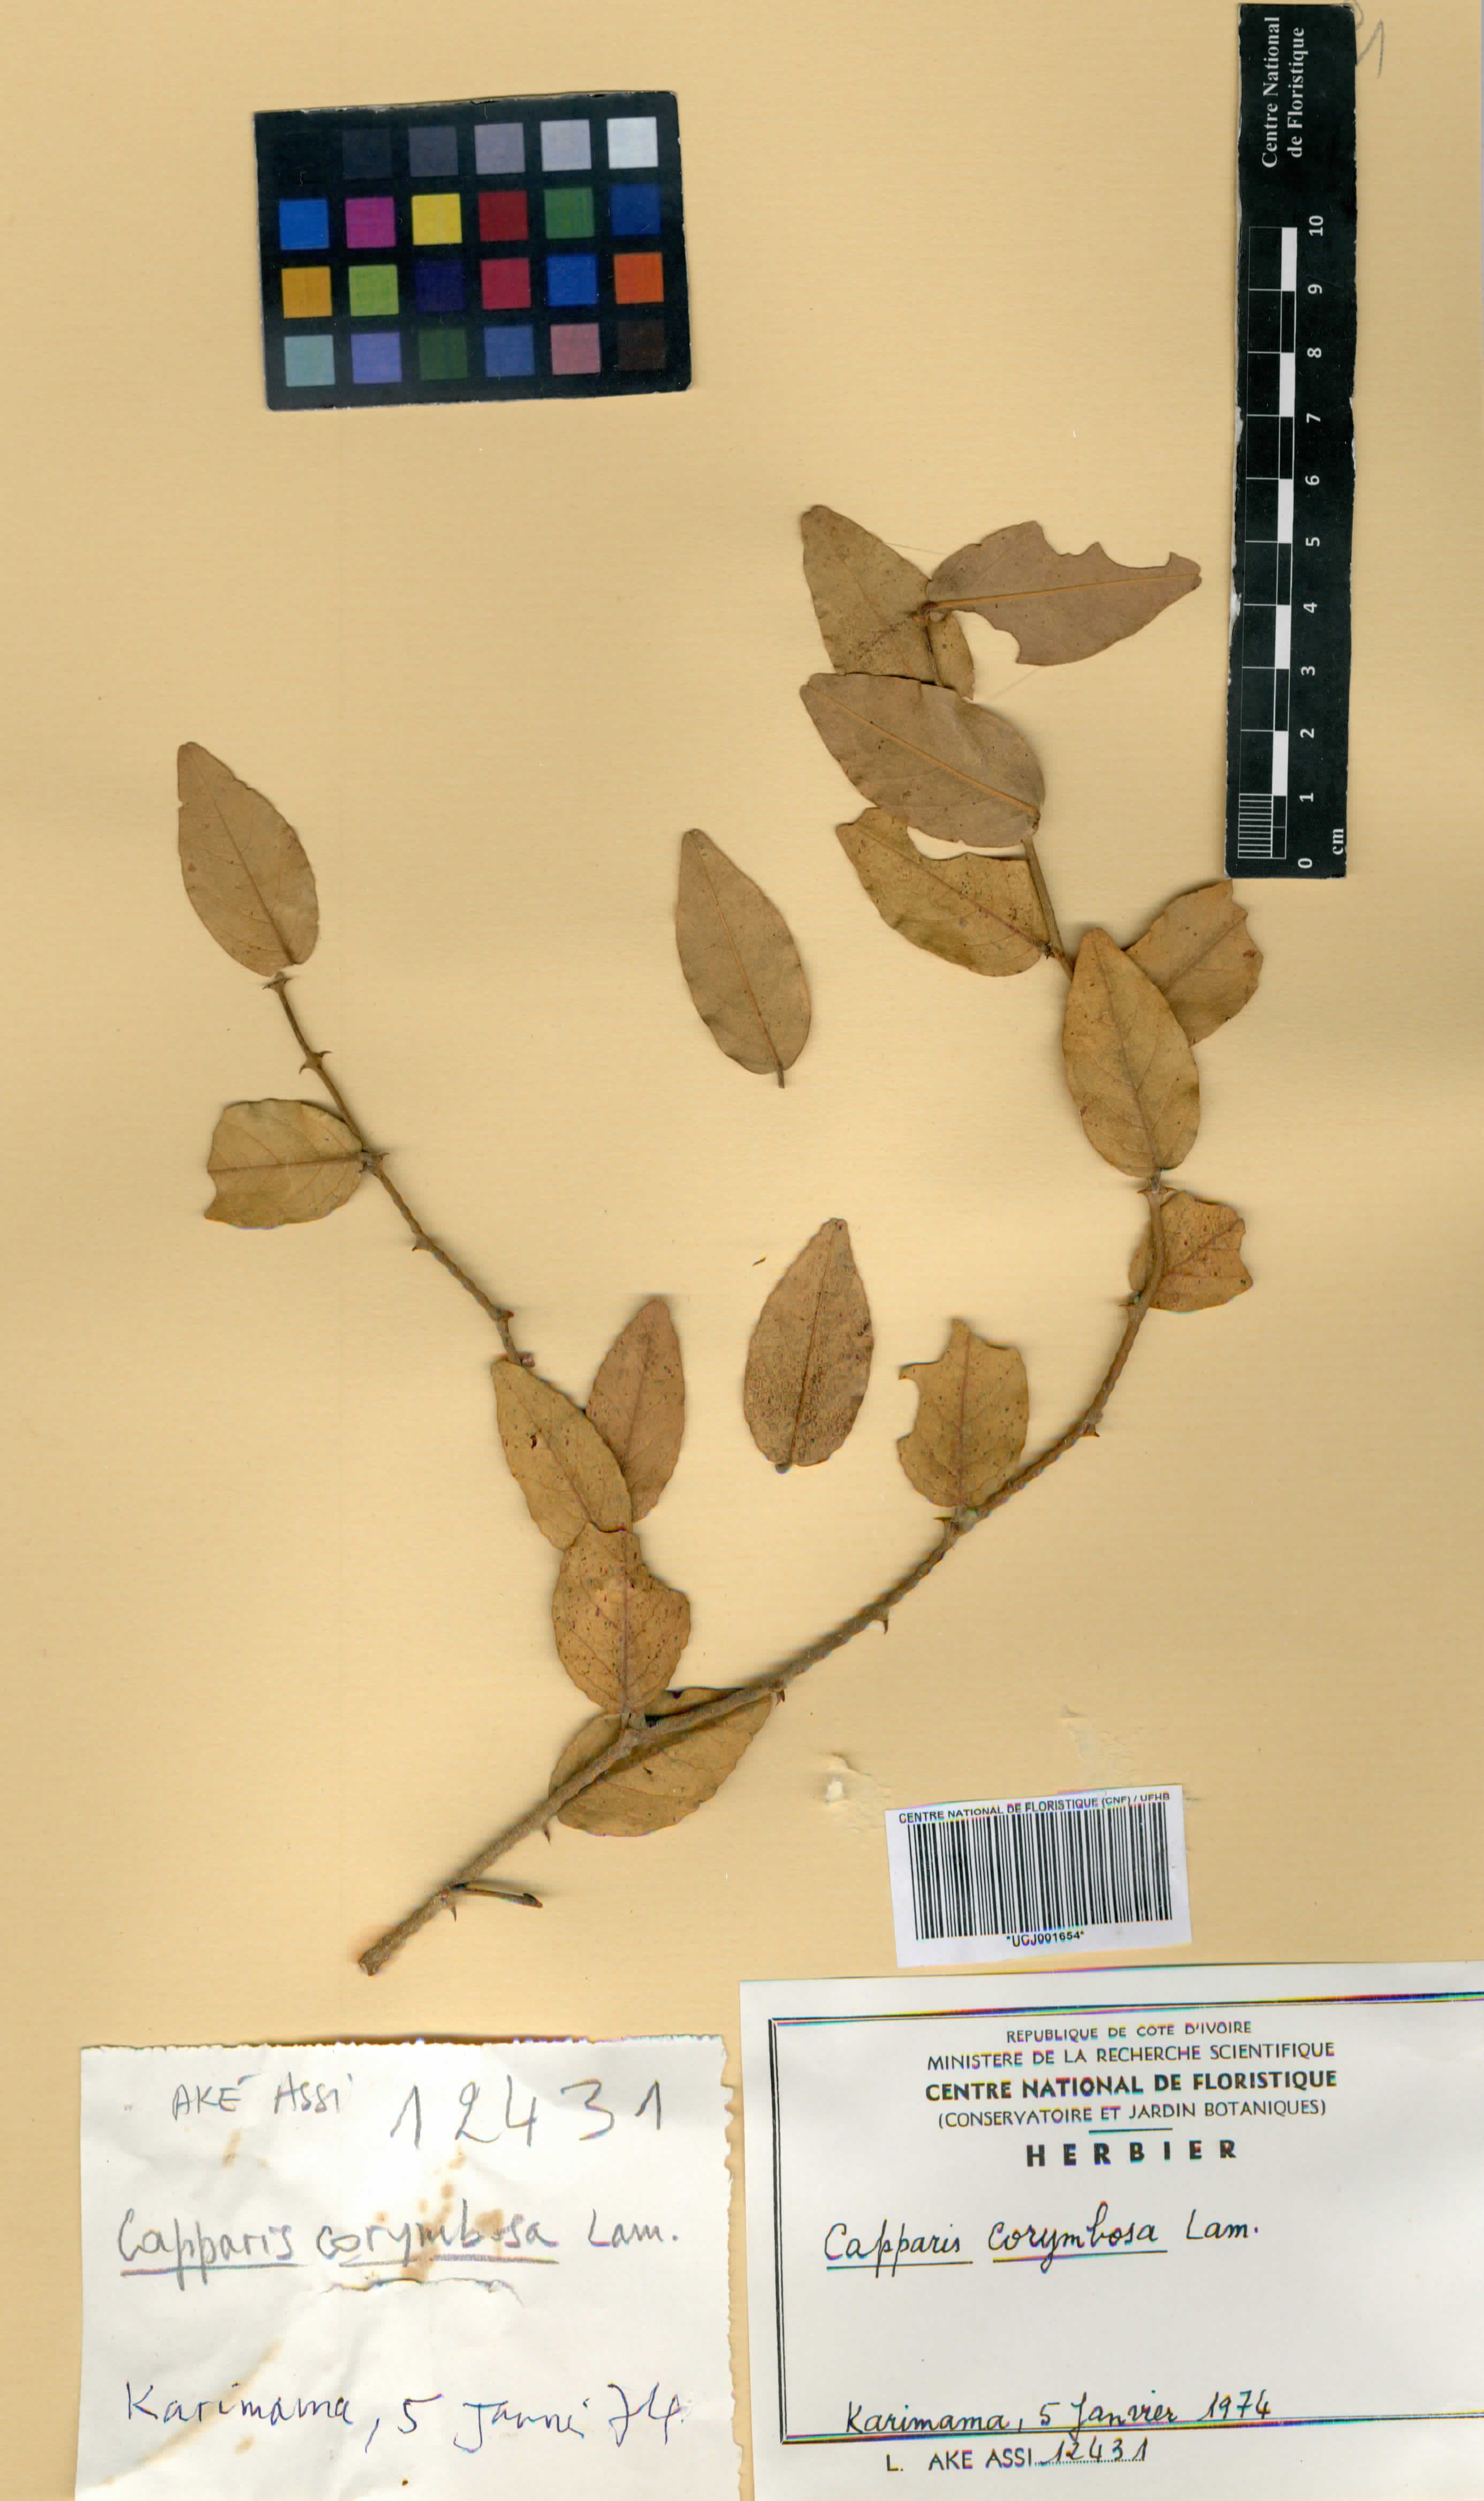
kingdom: Plantae
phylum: Tracheophyta
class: Magnoliopsida
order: Brassicales
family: Capparaceae
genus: Capparis
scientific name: Capparis corymbosa
